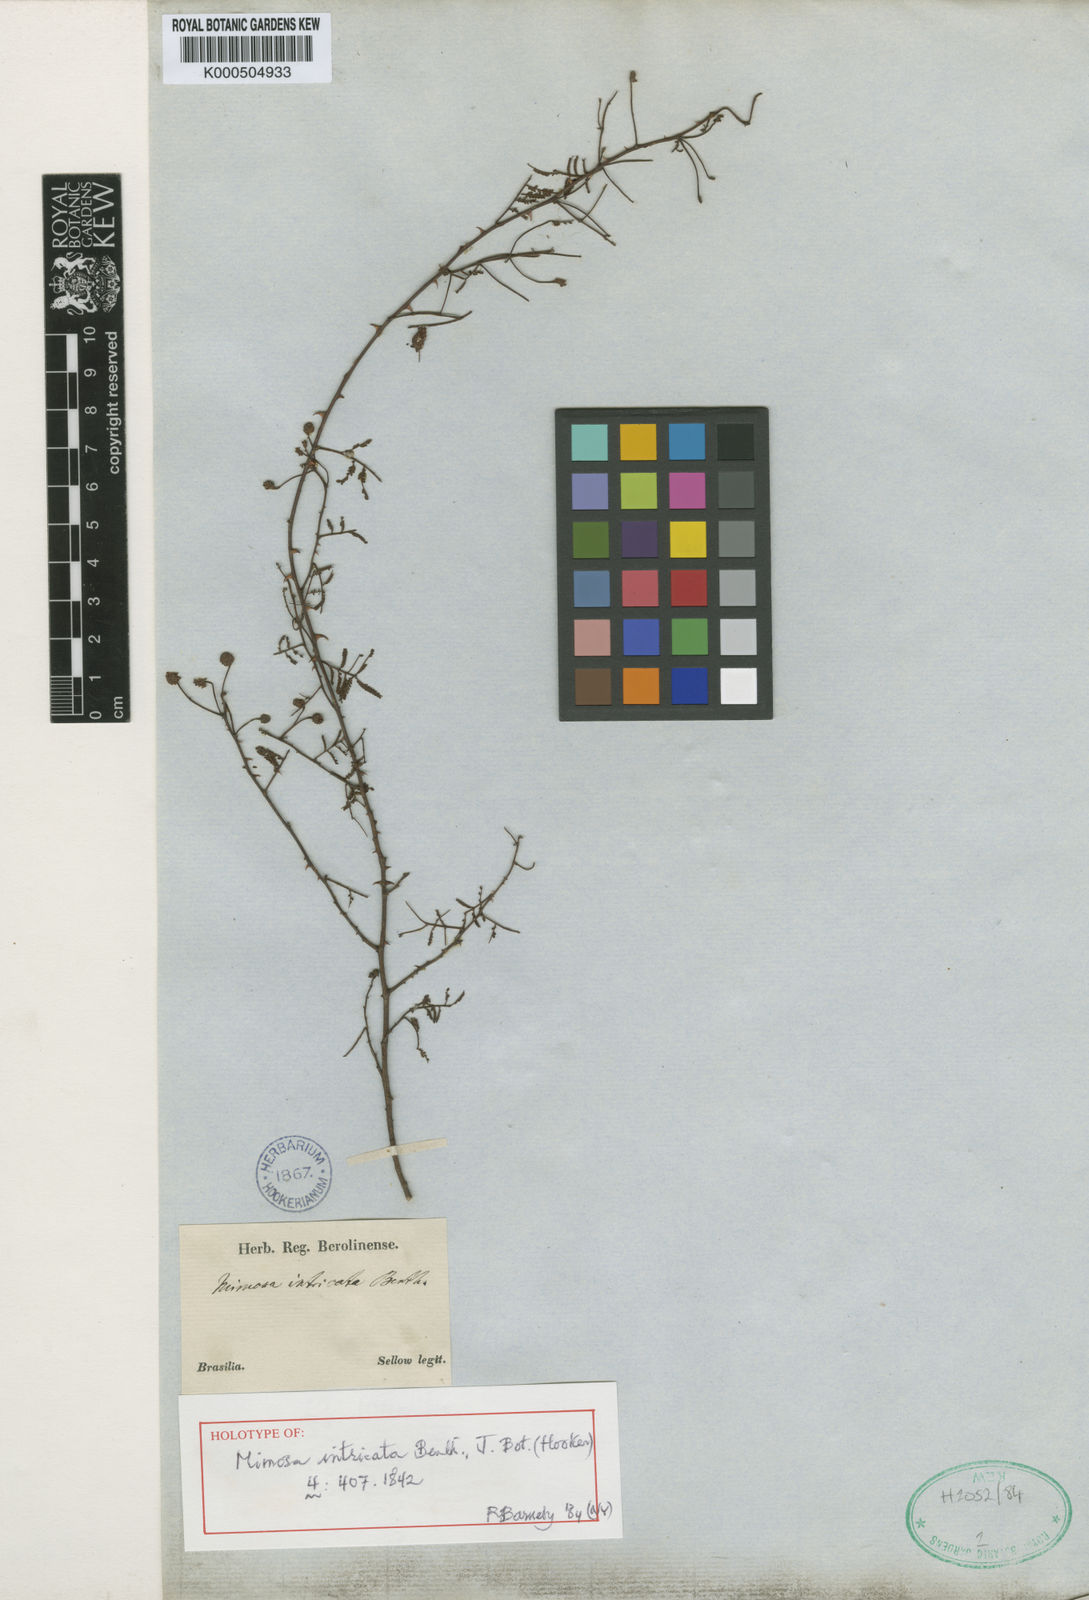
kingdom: Plantae
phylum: Tracheophyta
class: Magnoliopsida
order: Fabales
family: Fabaceae
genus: Mimosa
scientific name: Mimosa intricata
